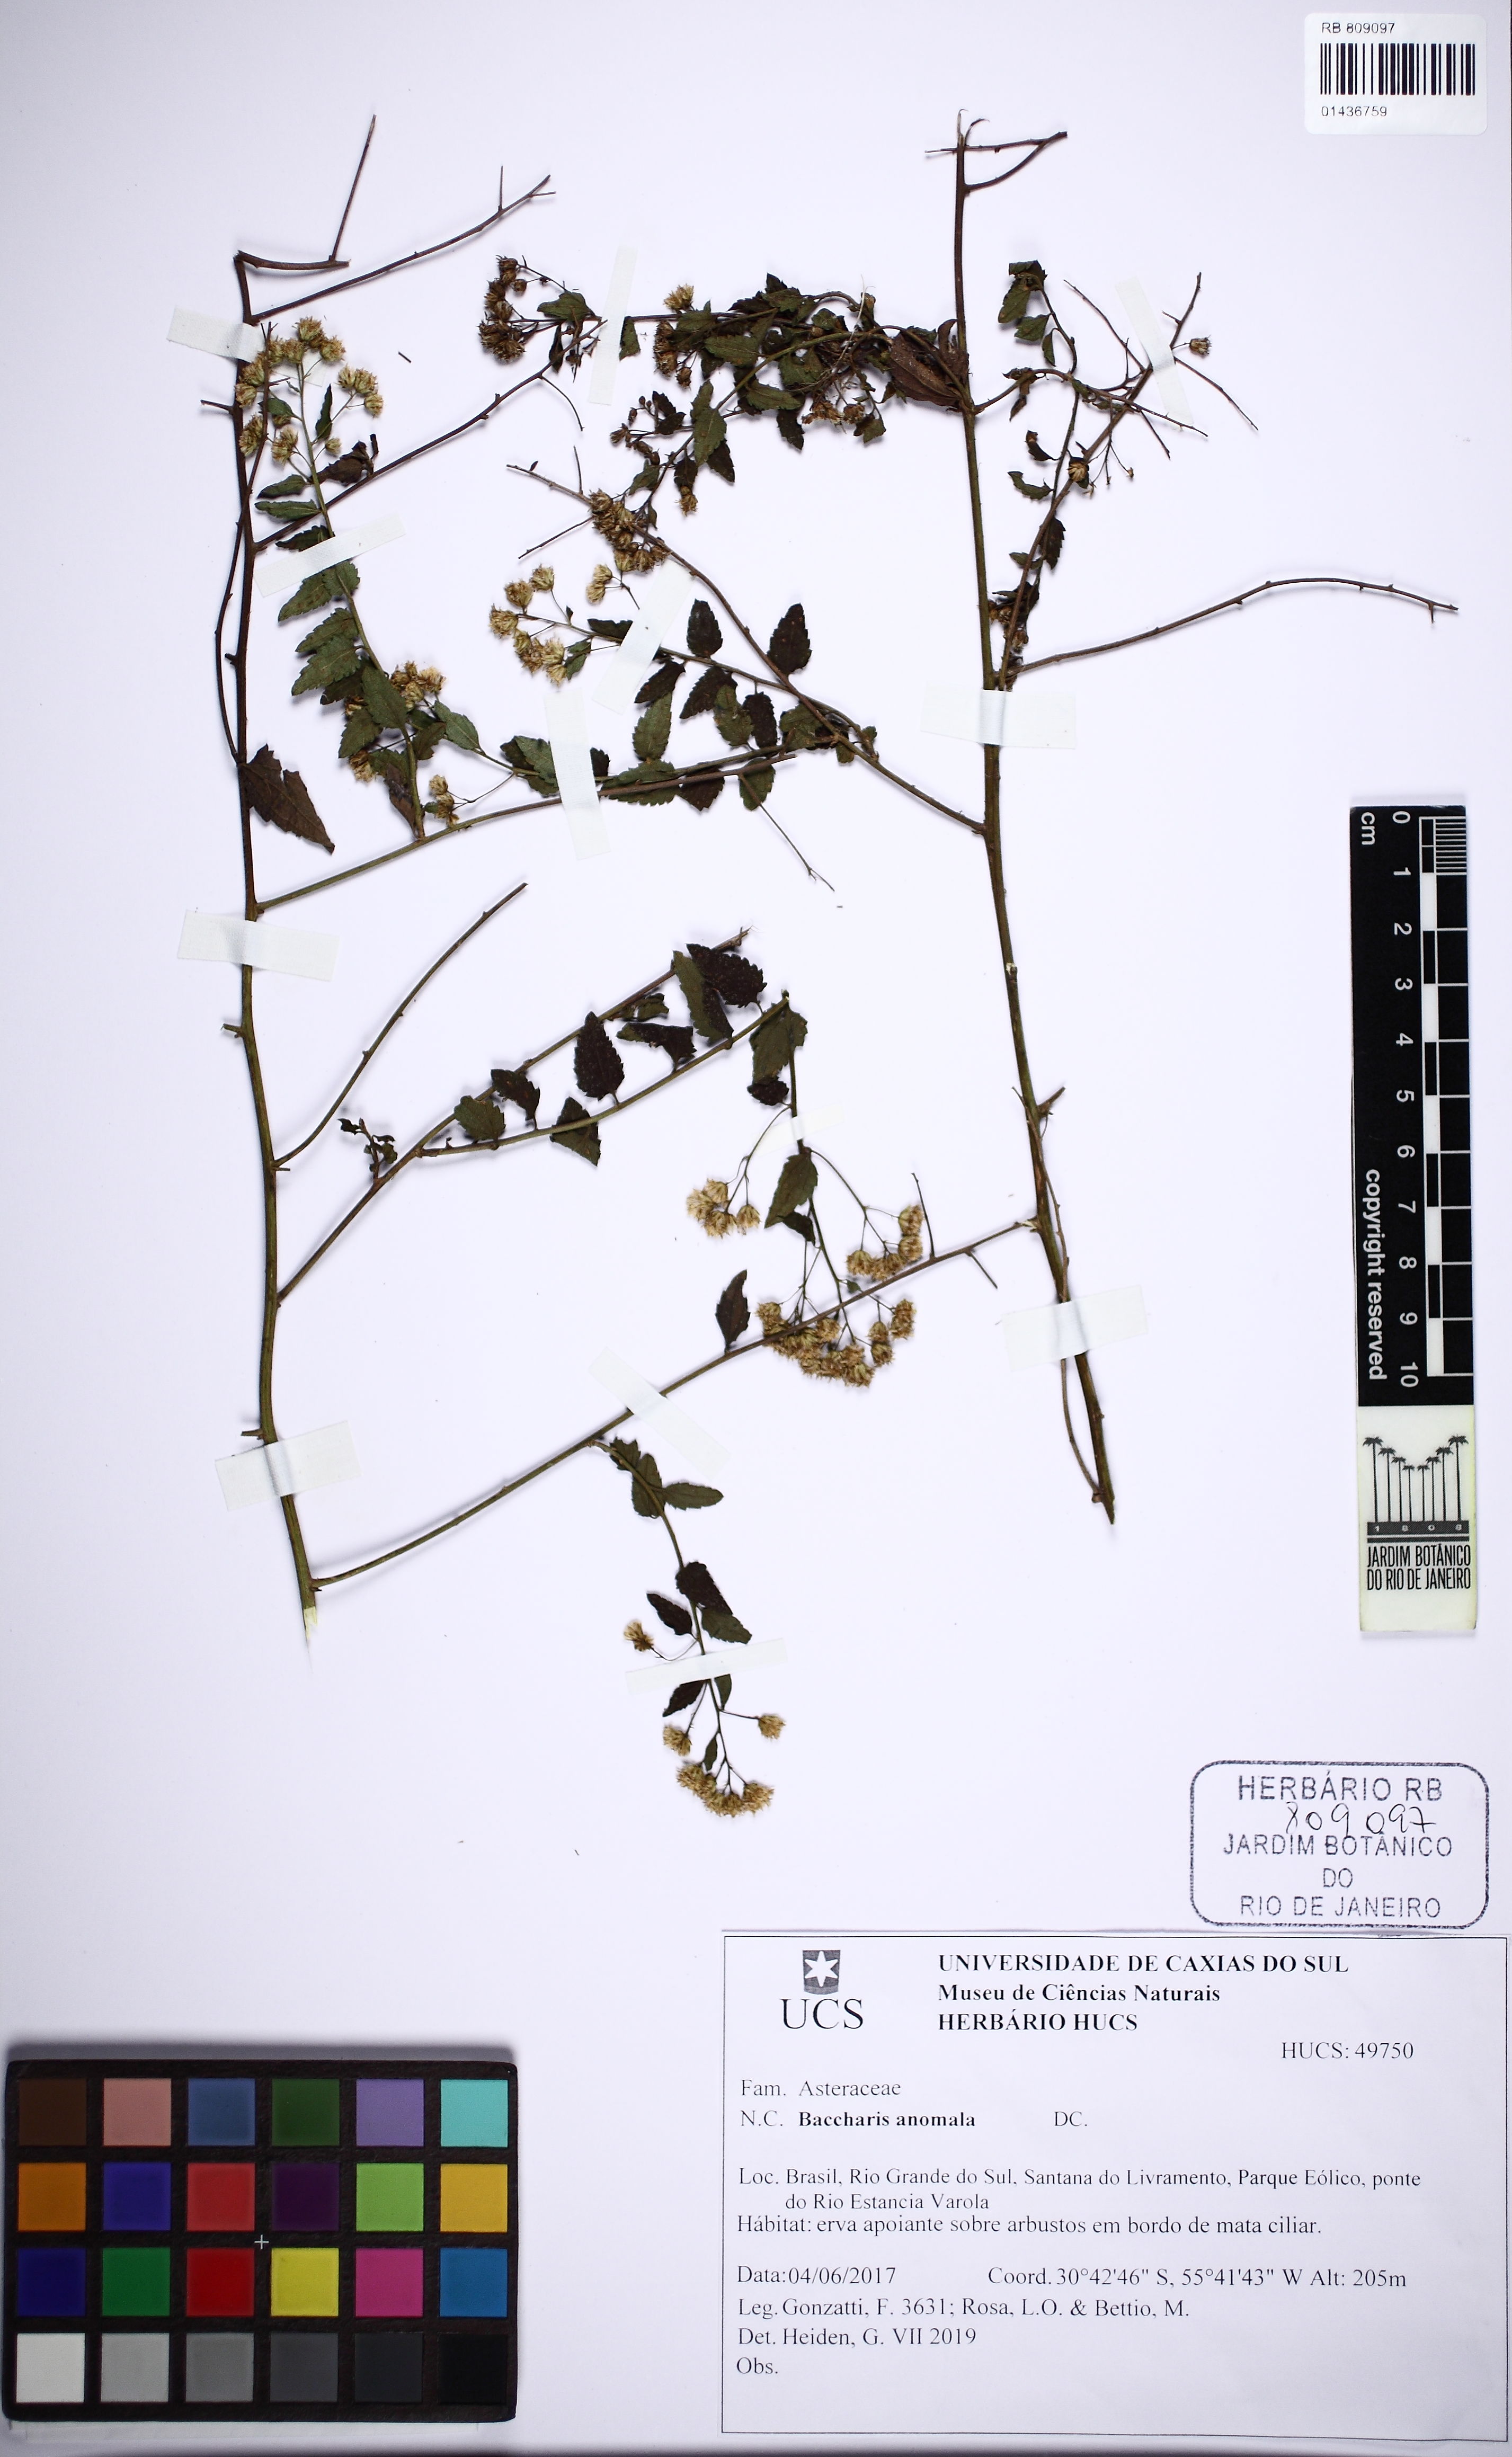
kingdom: Plantae
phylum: Tracheophyta
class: Magnoliopsida
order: Asterales
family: Asteraceae
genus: Baccharis
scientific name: Baccharis anomala
